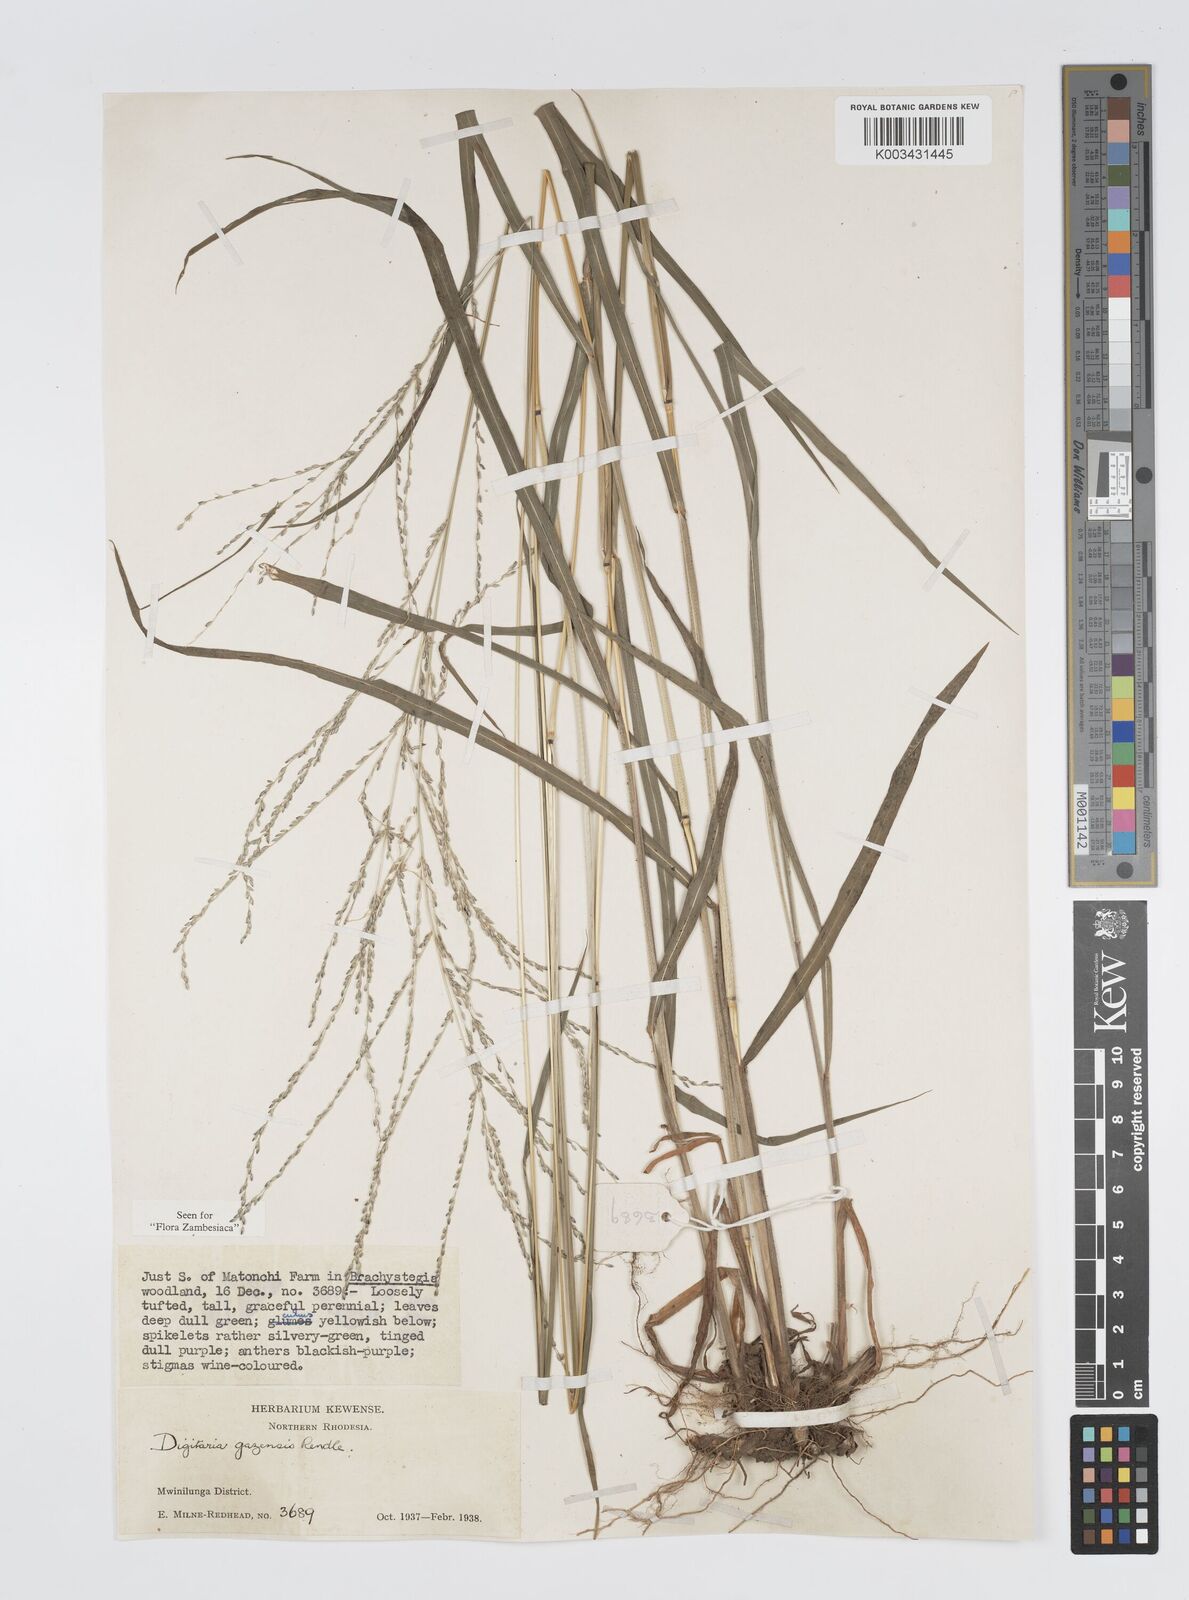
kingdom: Plantae
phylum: Tracheophyta
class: Liliopsida
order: Poales
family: Poaceae
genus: Digitaria
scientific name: Digitaria gazensis
